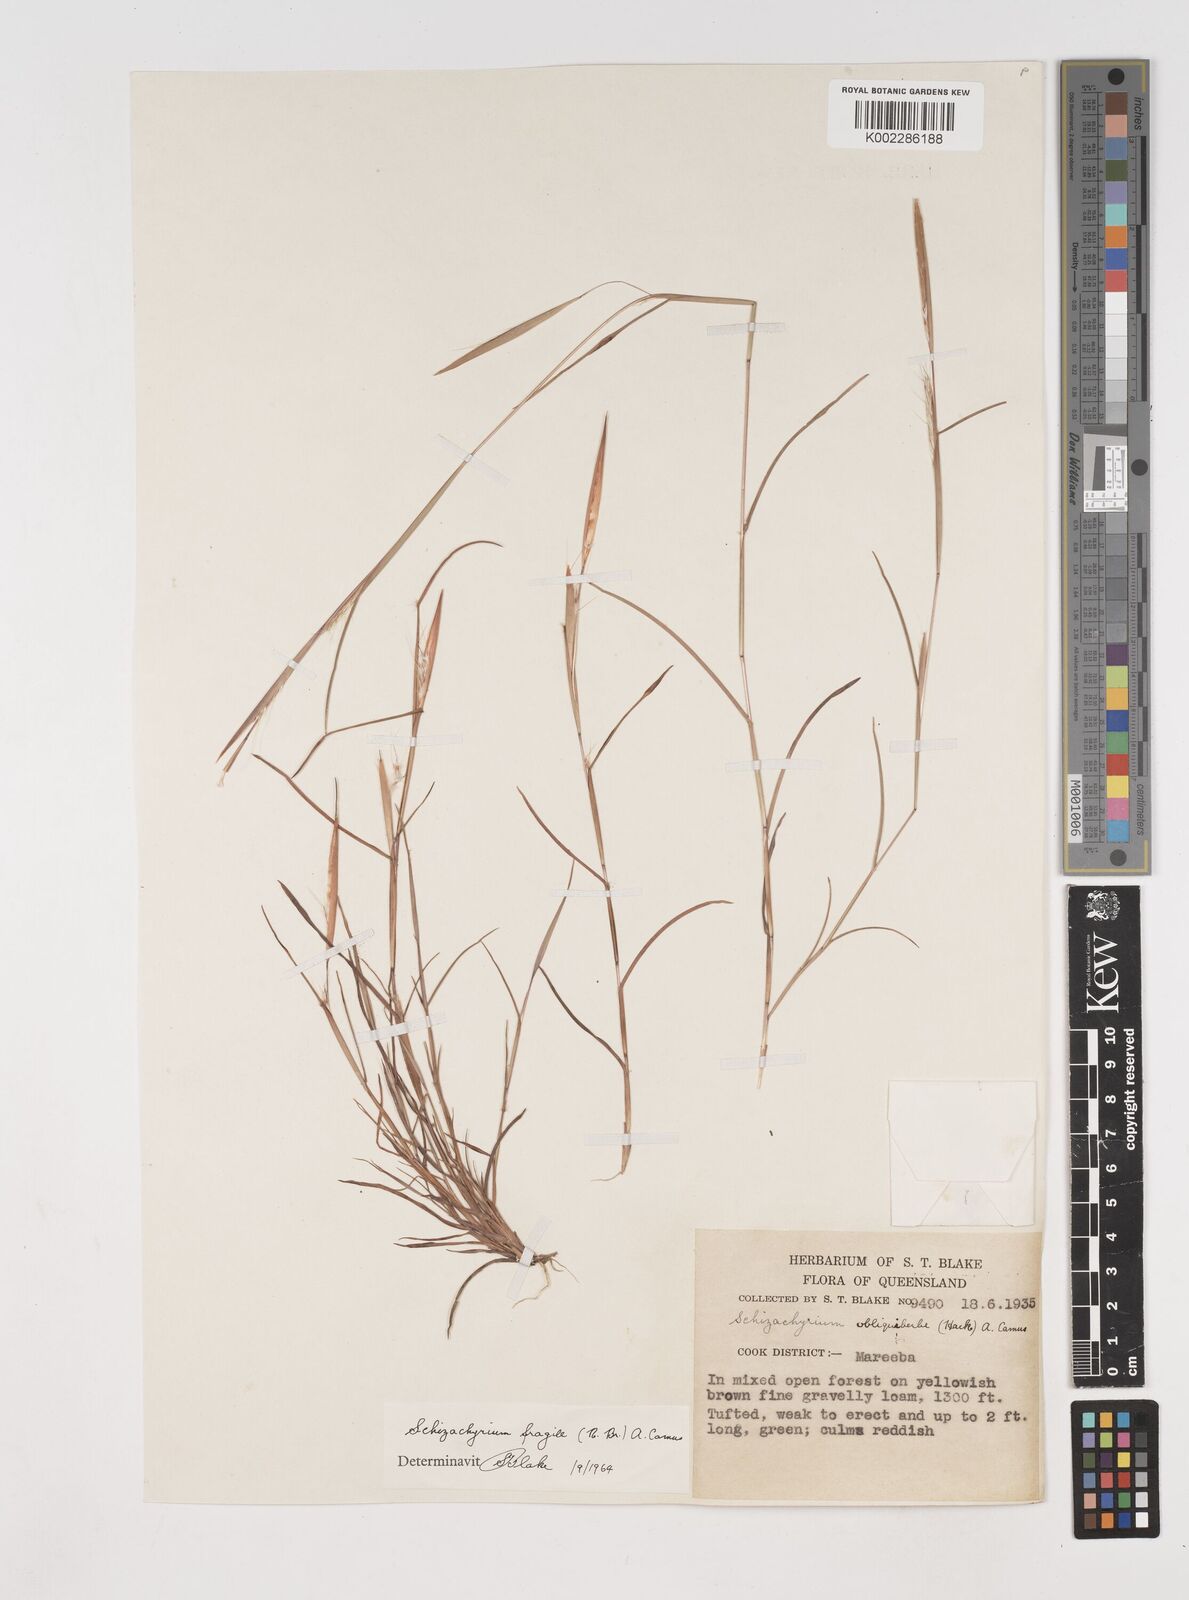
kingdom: Plantae
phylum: Tracheophyta
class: Liliopsida
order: Poales
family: Poaceae
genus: Schizachyrium
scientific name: Schizachyrium fragile
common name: Red spathe grass
